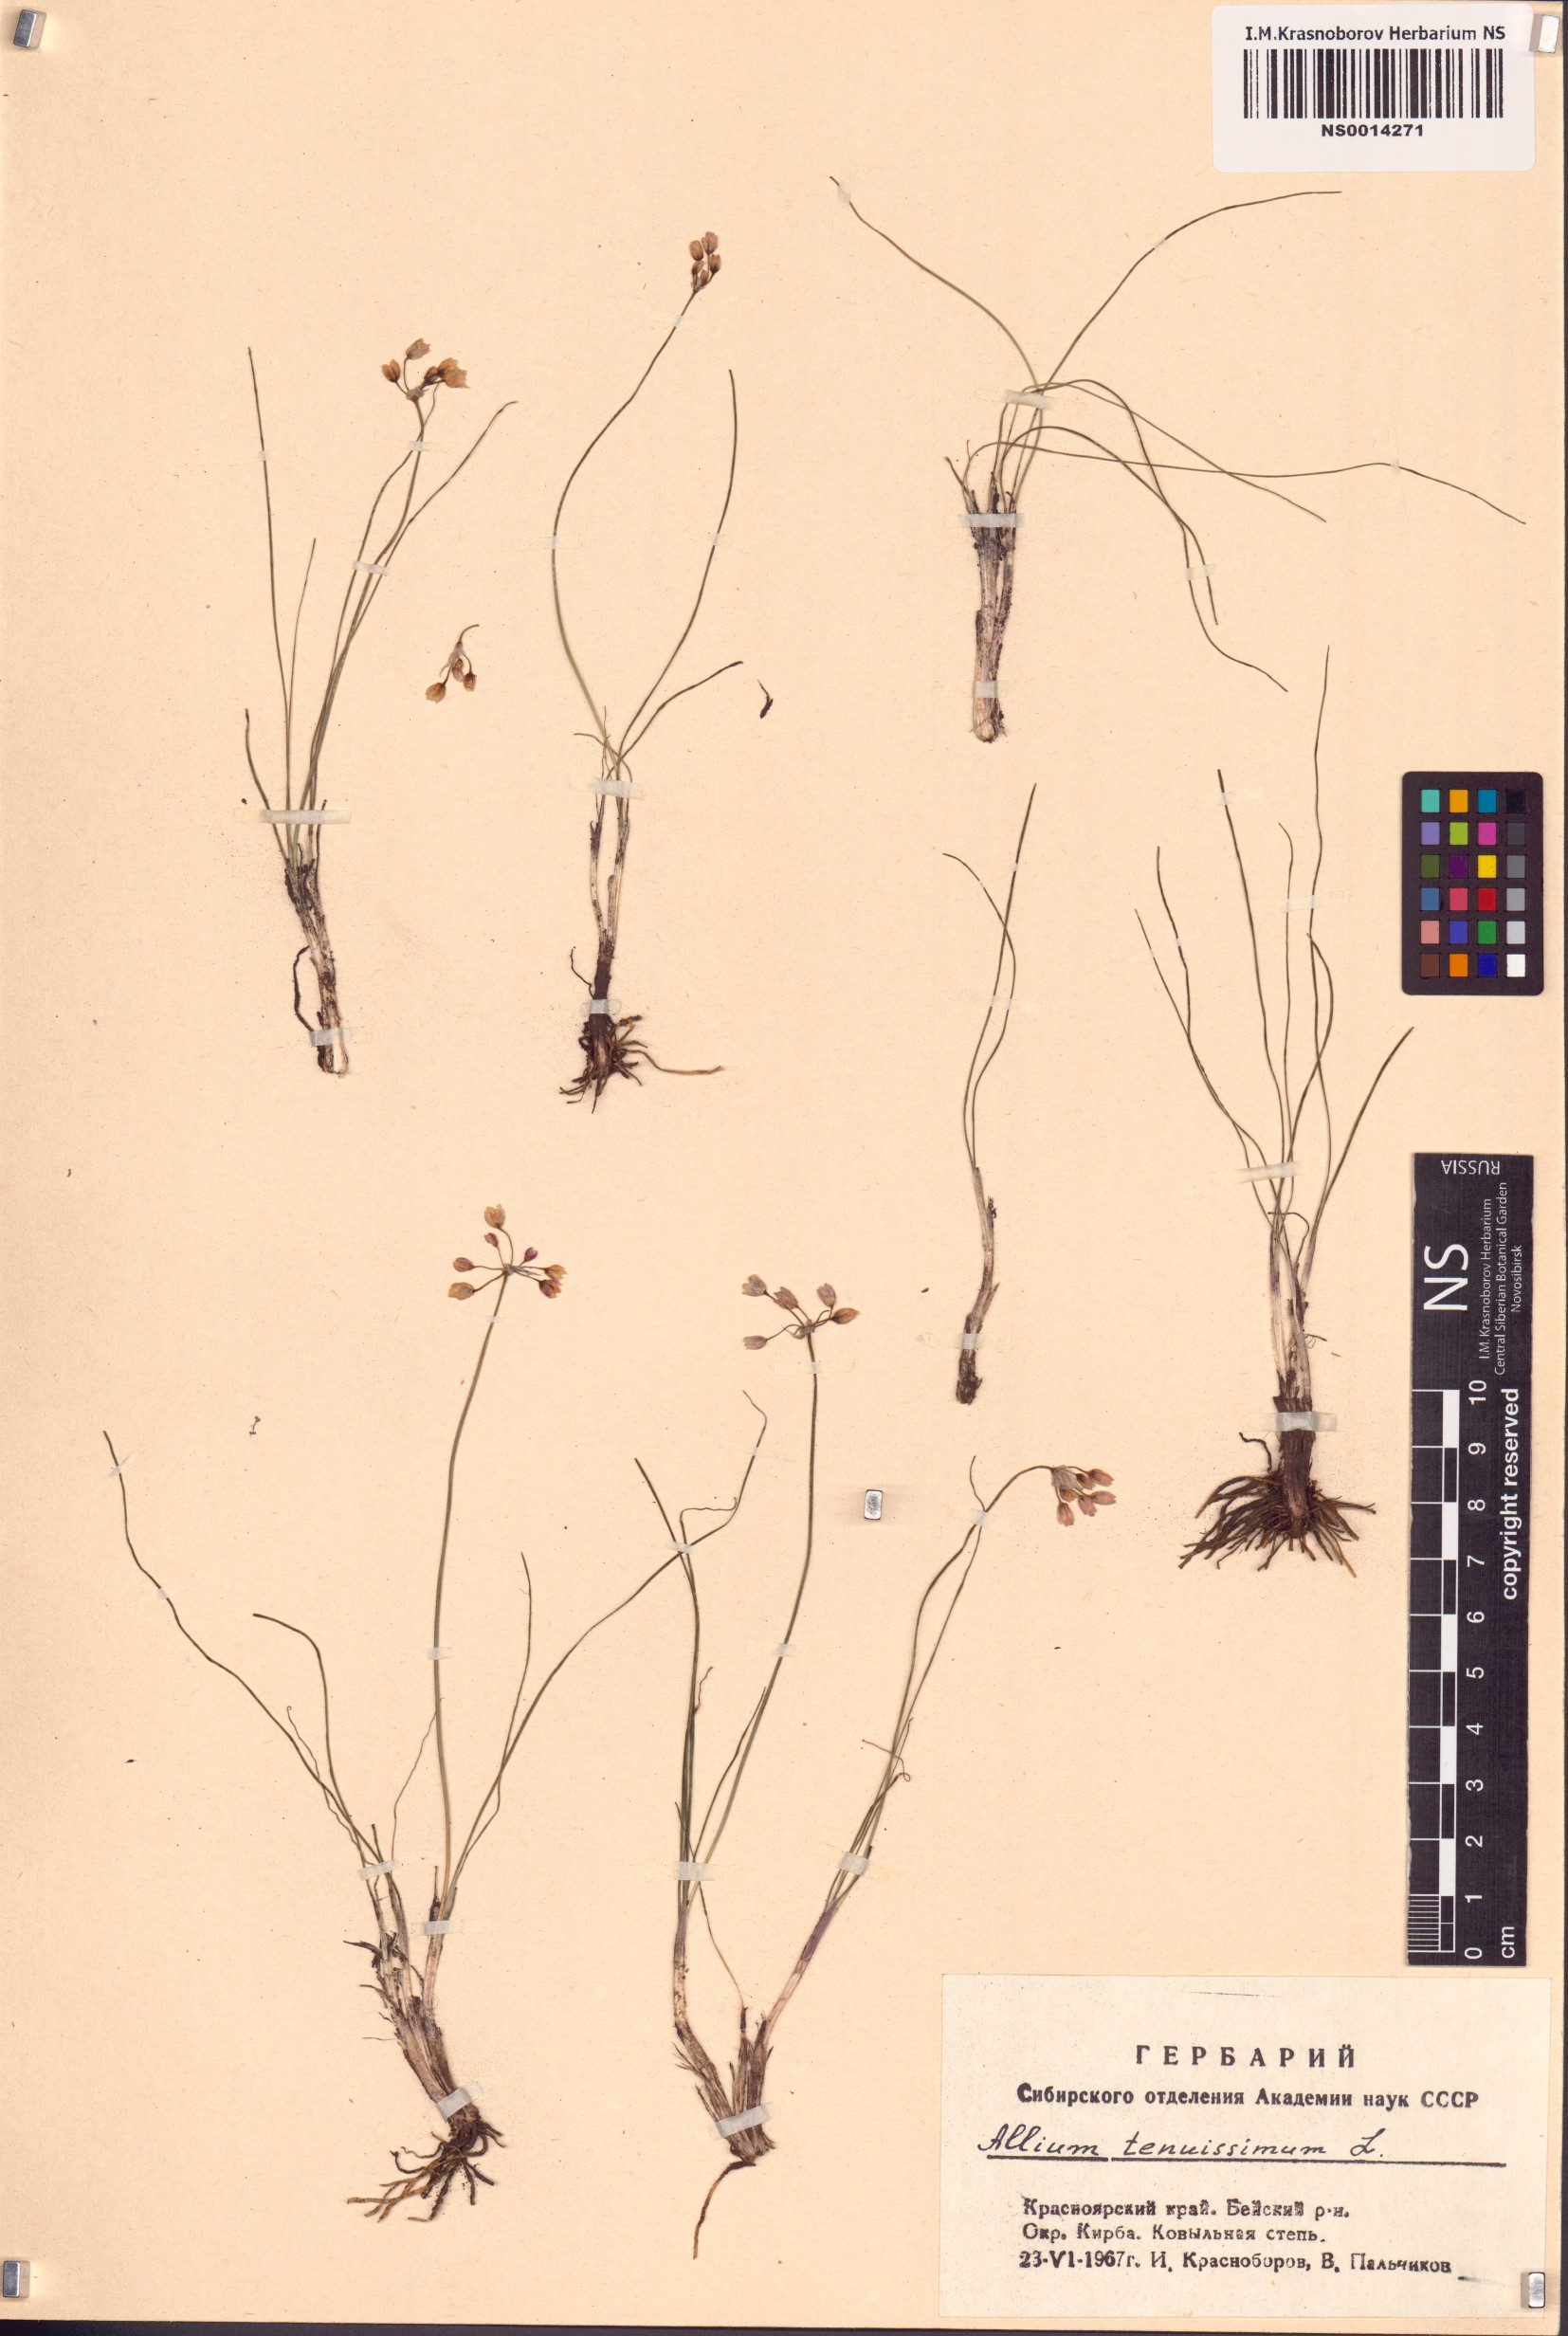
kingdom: Plantae
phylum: Tracheophyta
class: Liliopsida
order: Asparagales
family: Amaryllidaceae
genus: Allium
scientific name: Allium tenuissimum
